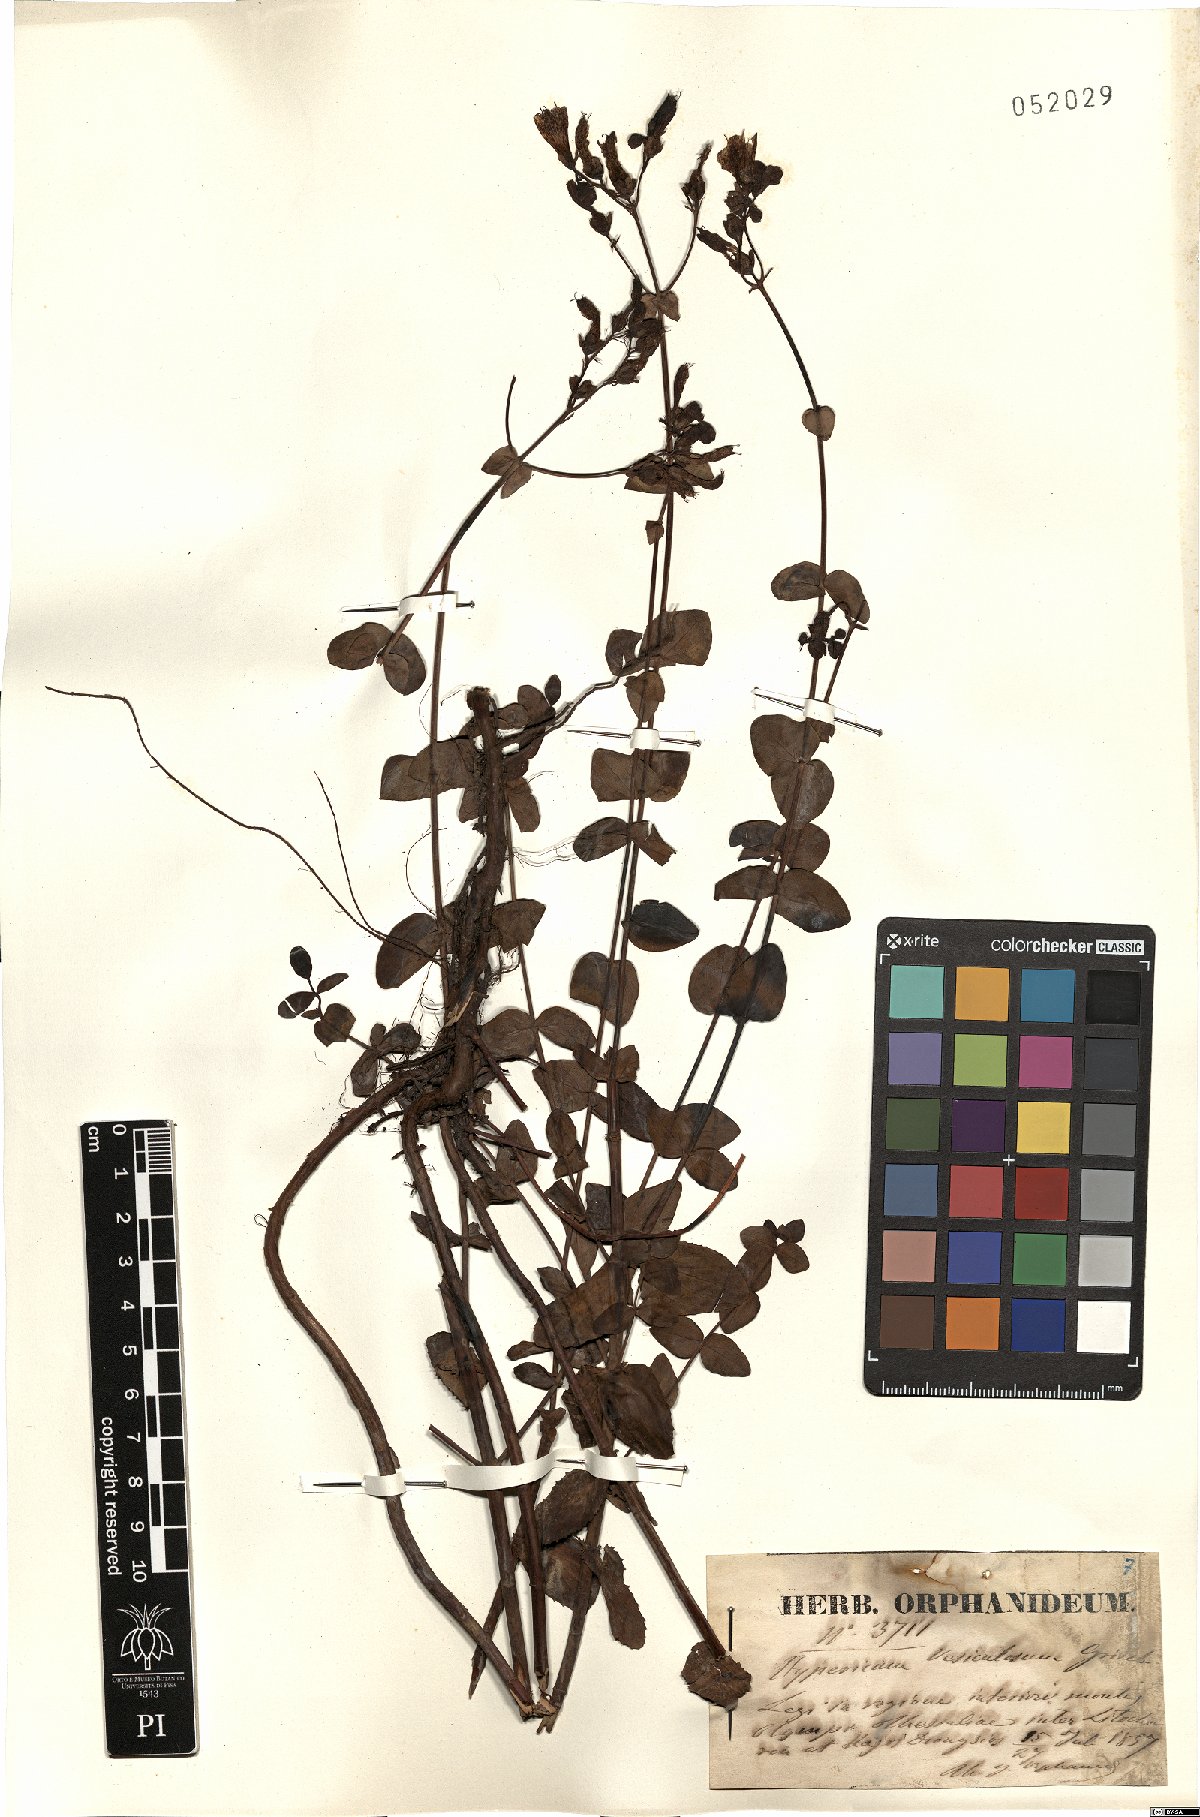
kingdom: Plantae
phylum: Tracheophyta
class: Magnoliopsida
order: Malpighiales
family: Hypericaceae
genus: Hypericum
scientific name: Hypericum vesiculosum
